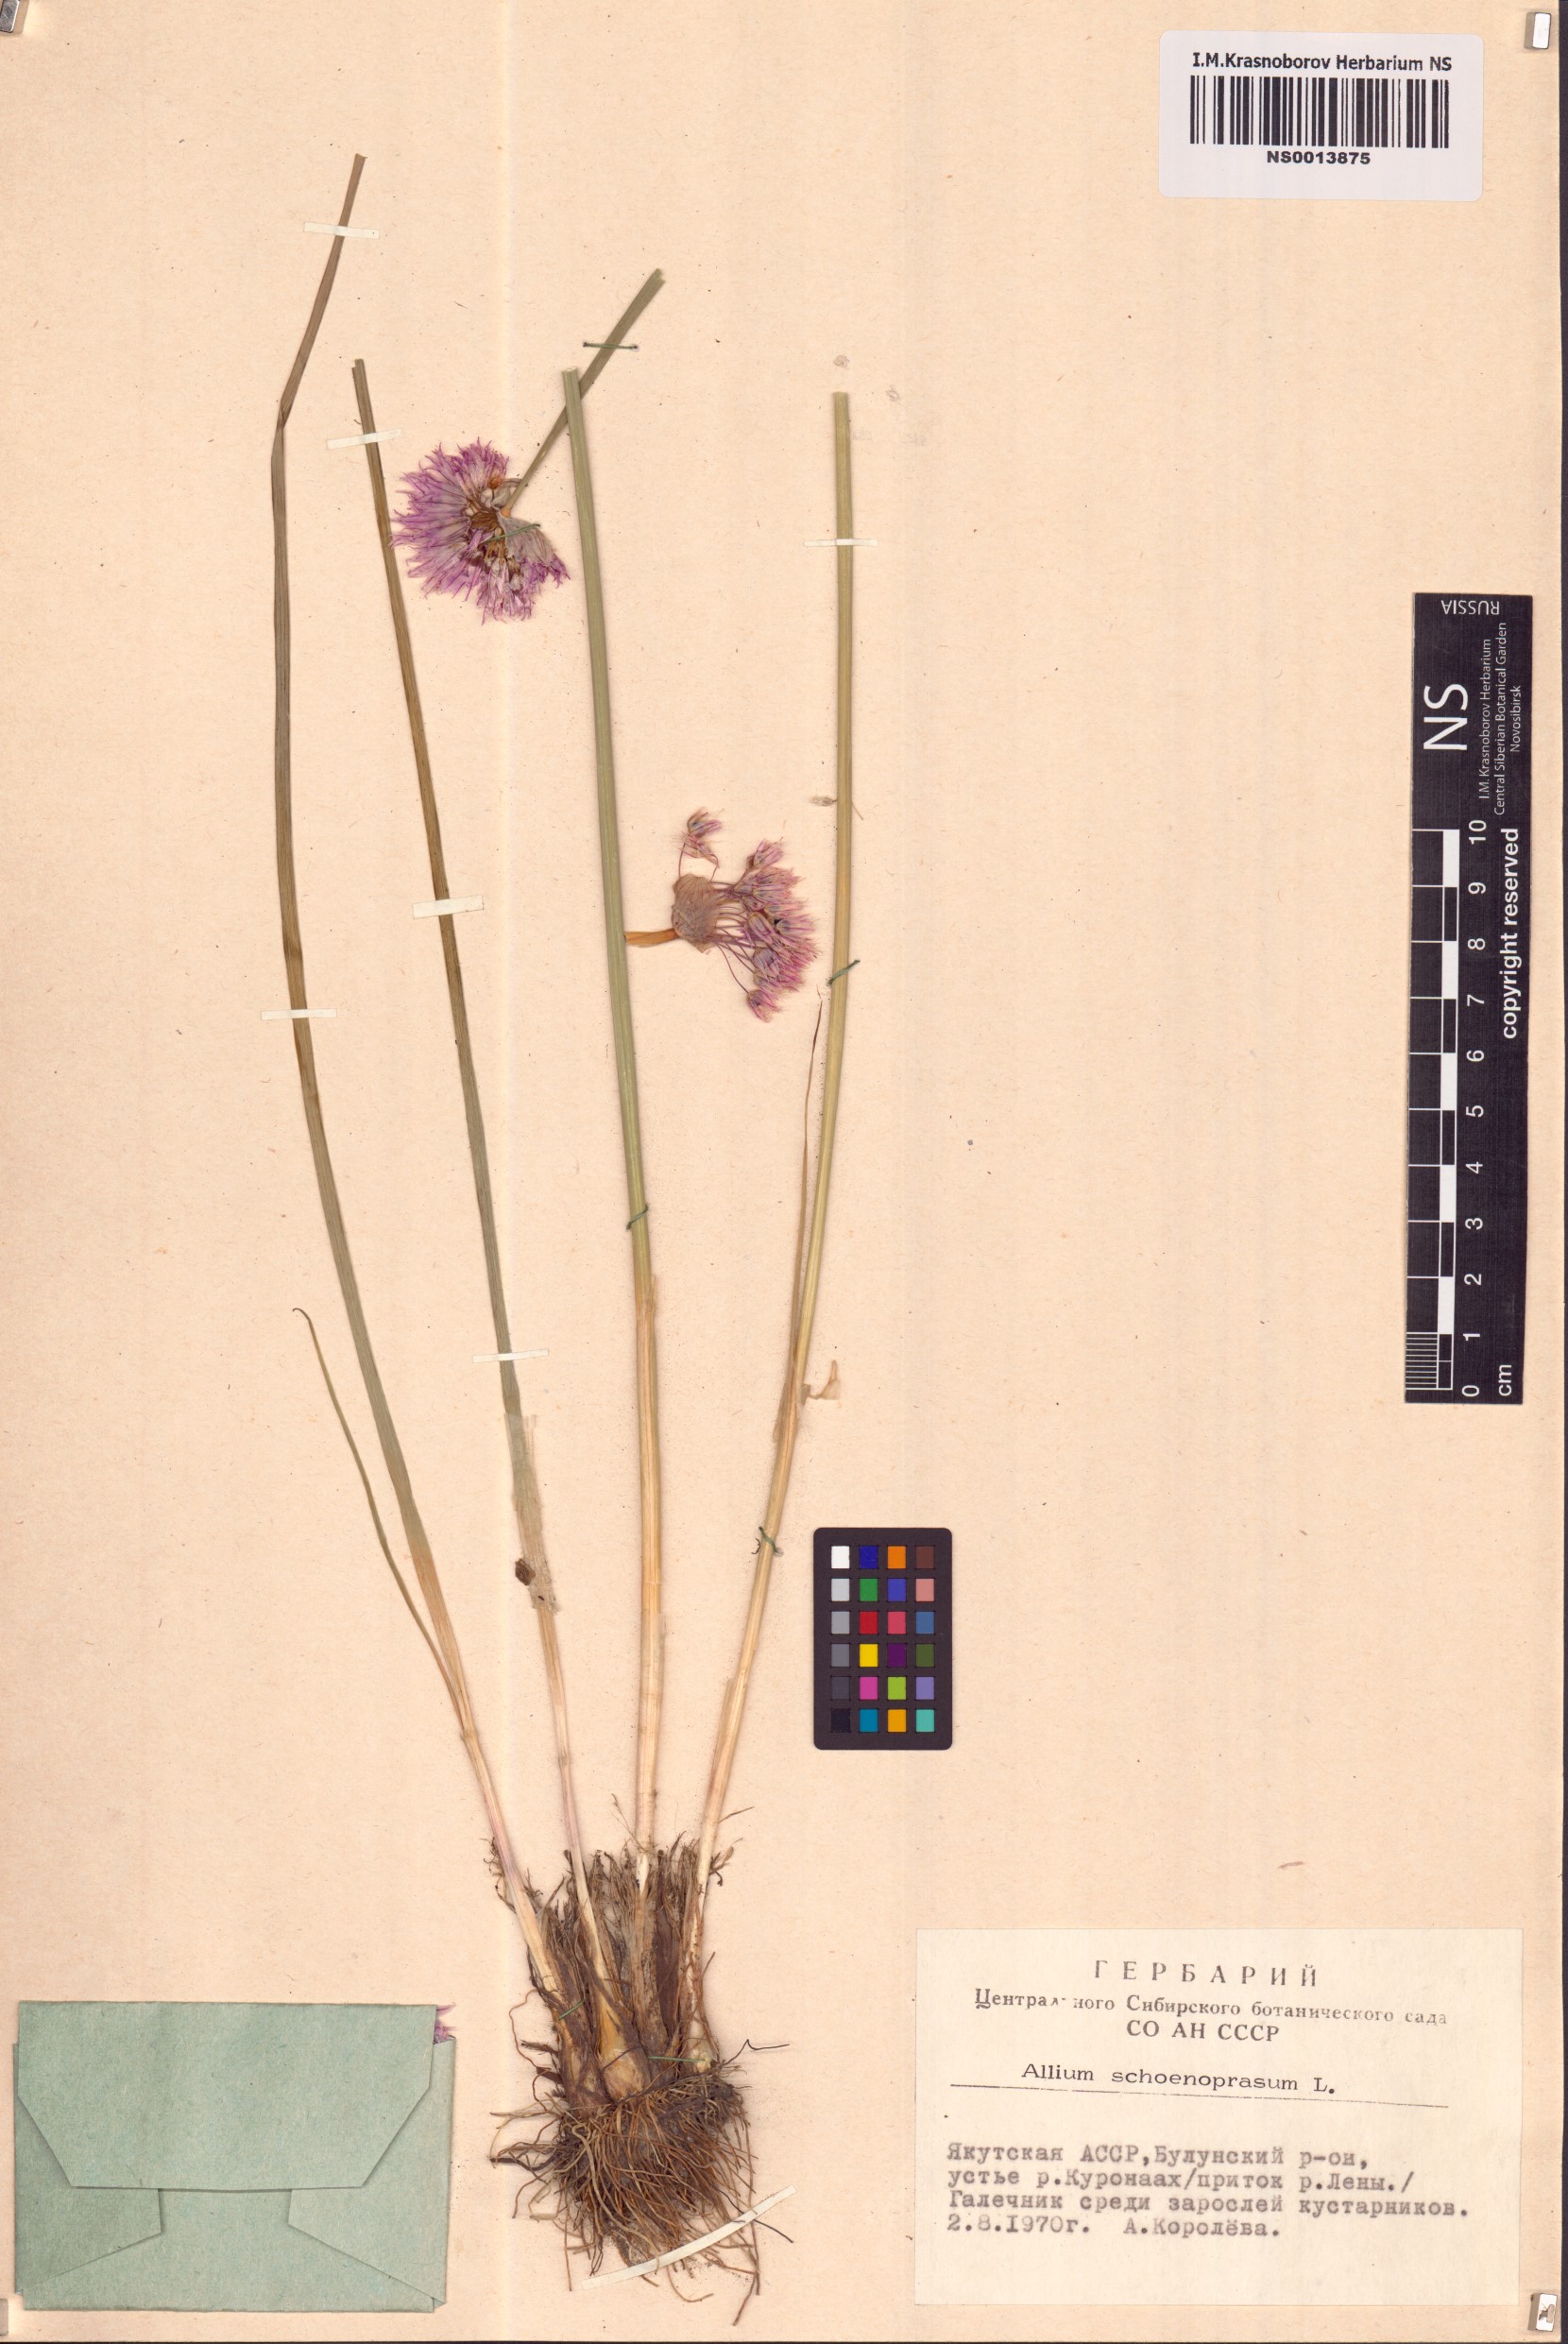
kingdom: Plantae
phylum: Tracheophyta
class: Liliopsida
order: Asparagales
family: Amaryllidaceae
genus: Allium
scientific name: Allium schoenoprasum
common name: Chives
